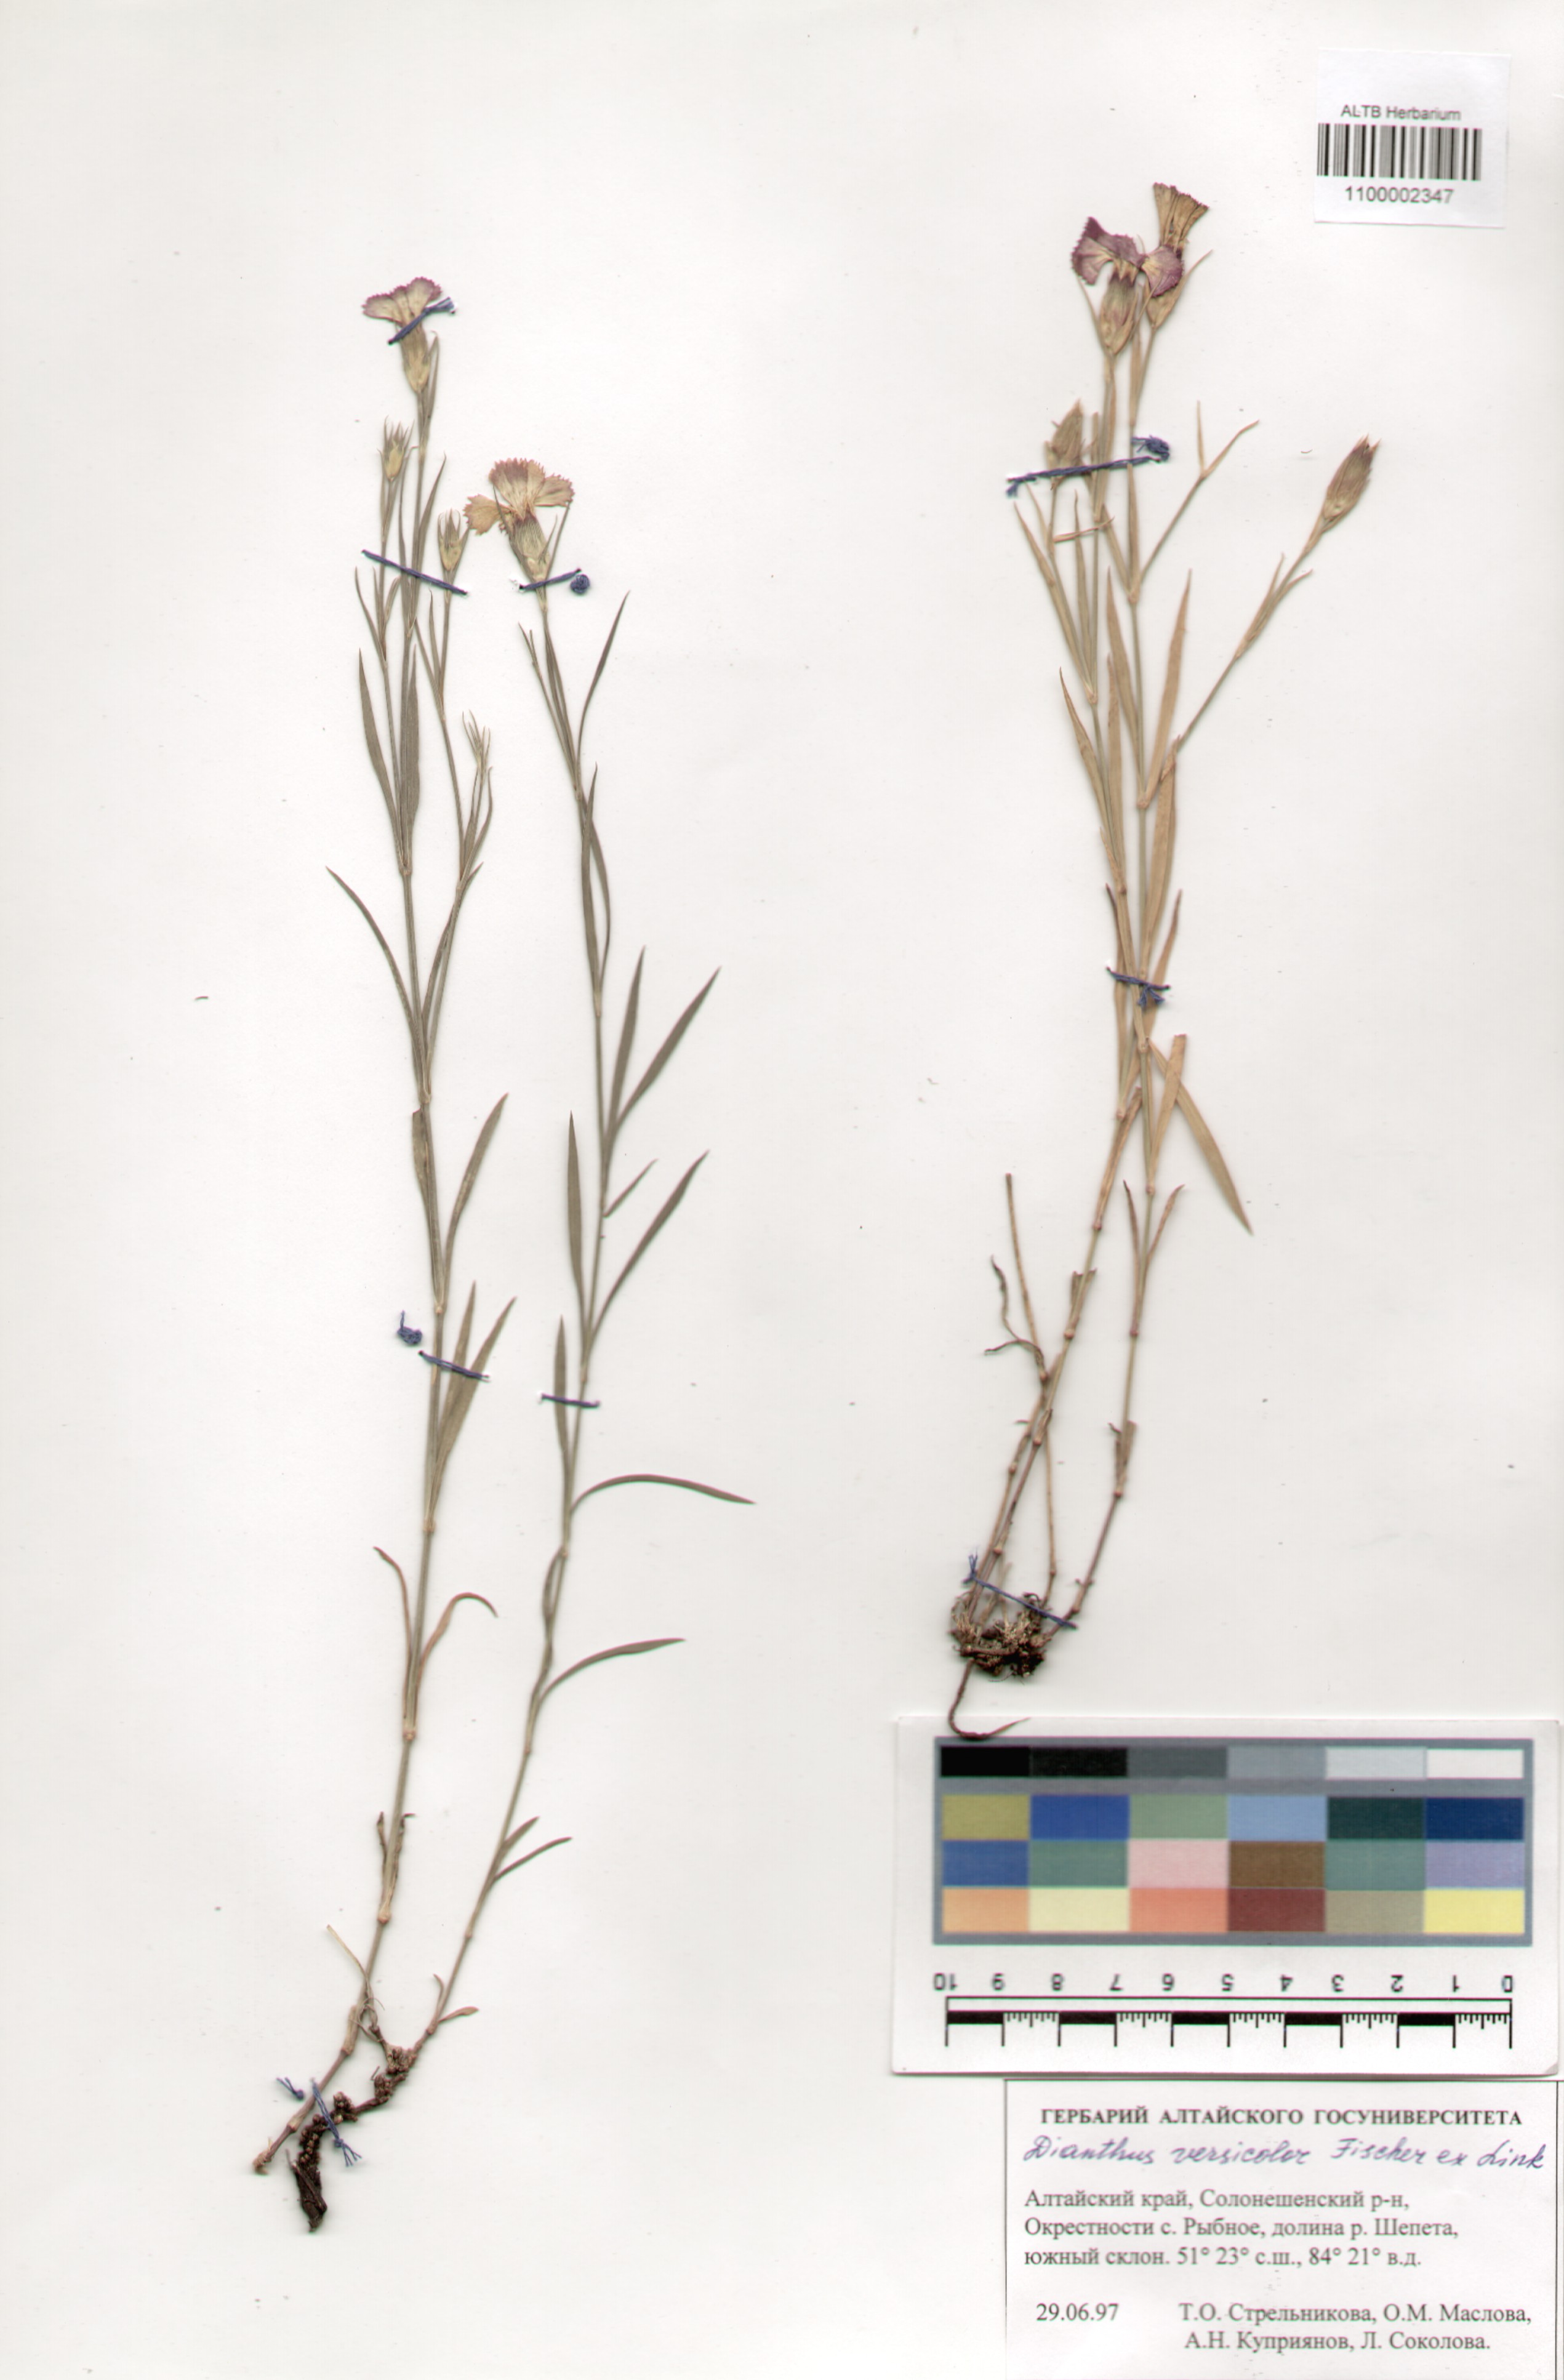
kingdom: Plantae
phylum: Tracheophyta
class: Magnoliopsida
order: Caryophyllales
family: Caryophyllaceae
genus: Dianthus
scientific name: Dianthus chinensis
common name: Rainbow pink
